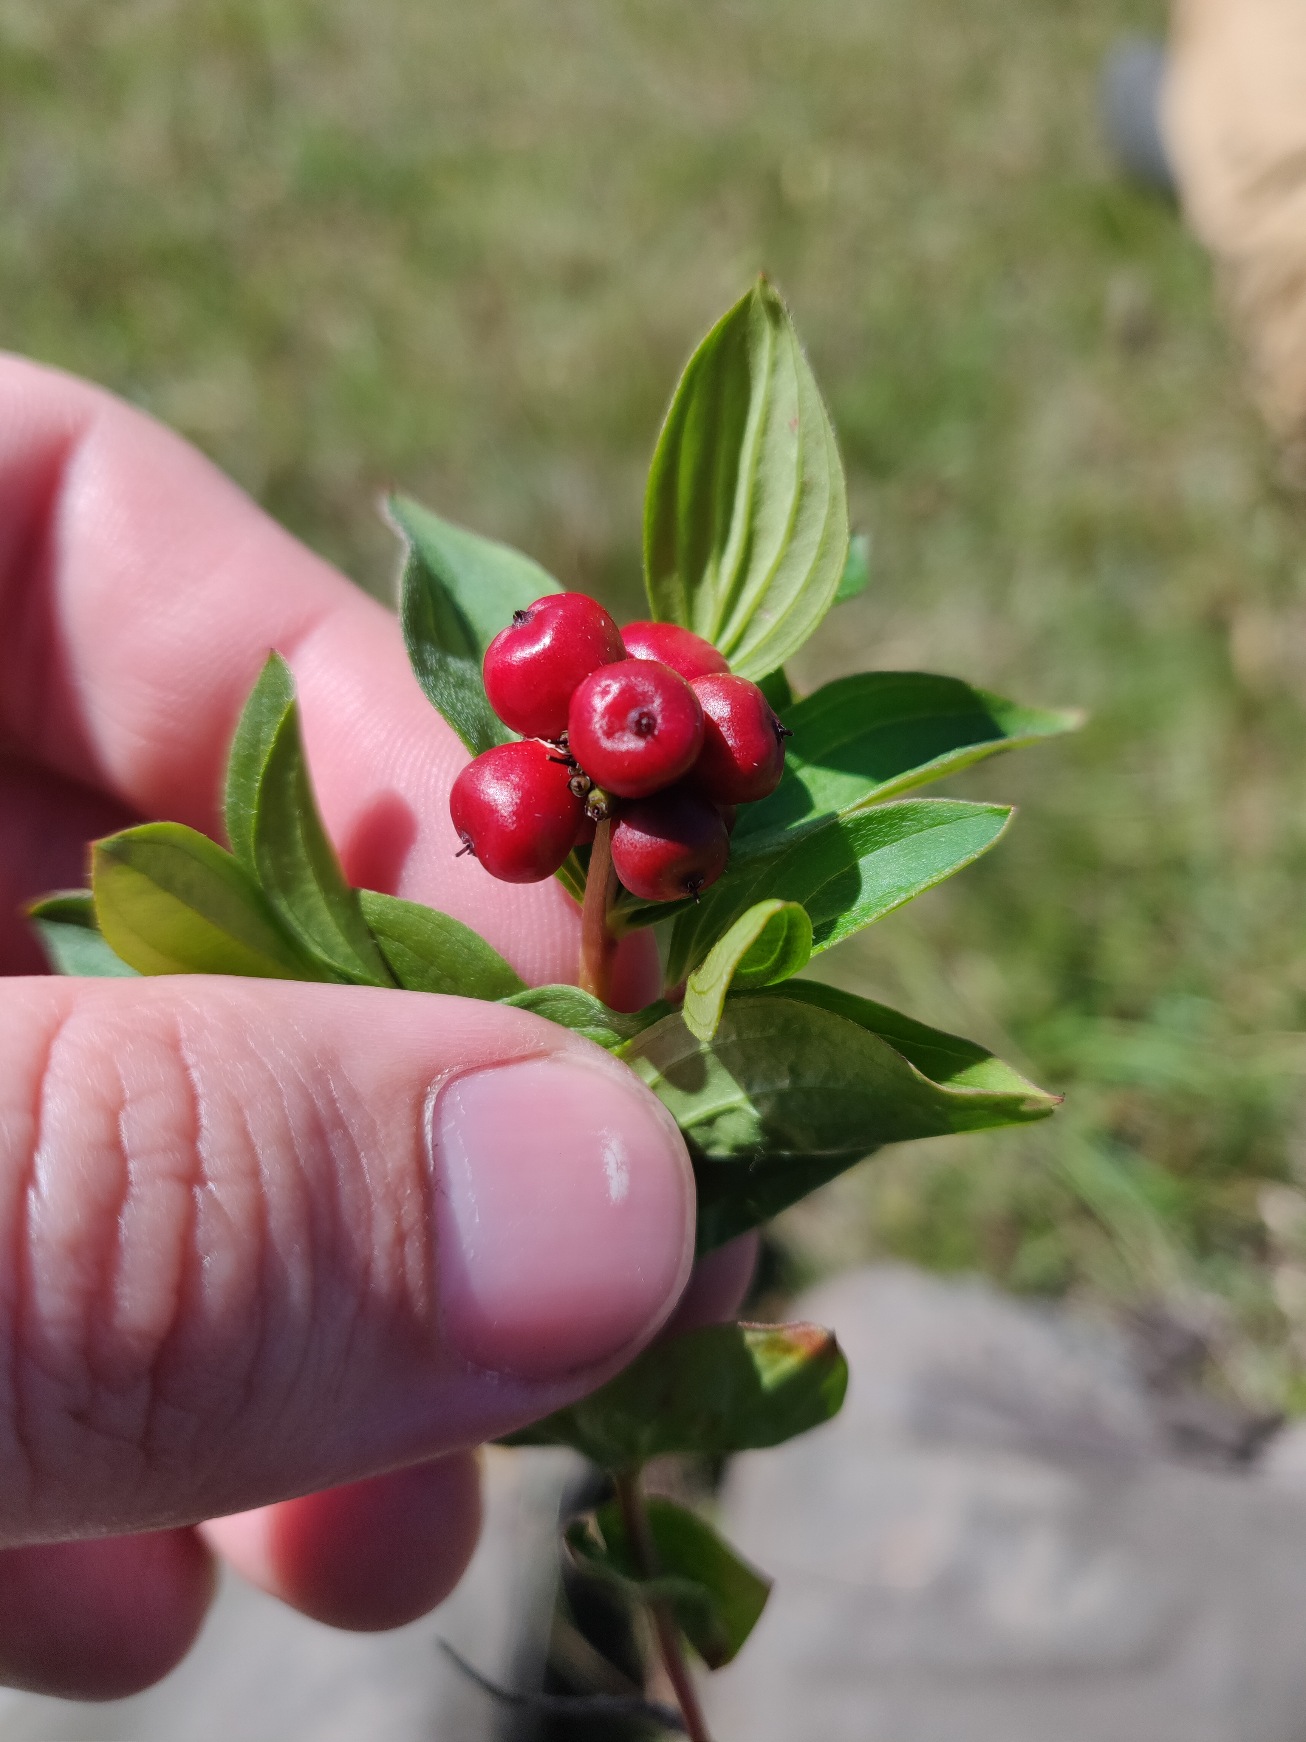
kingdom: Plantae
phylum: Tracheophyta
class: Magnoliopsida
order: Cornales
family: Cornaceae
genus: Cornus
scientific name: Cornus suecica
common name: Hønsebær
